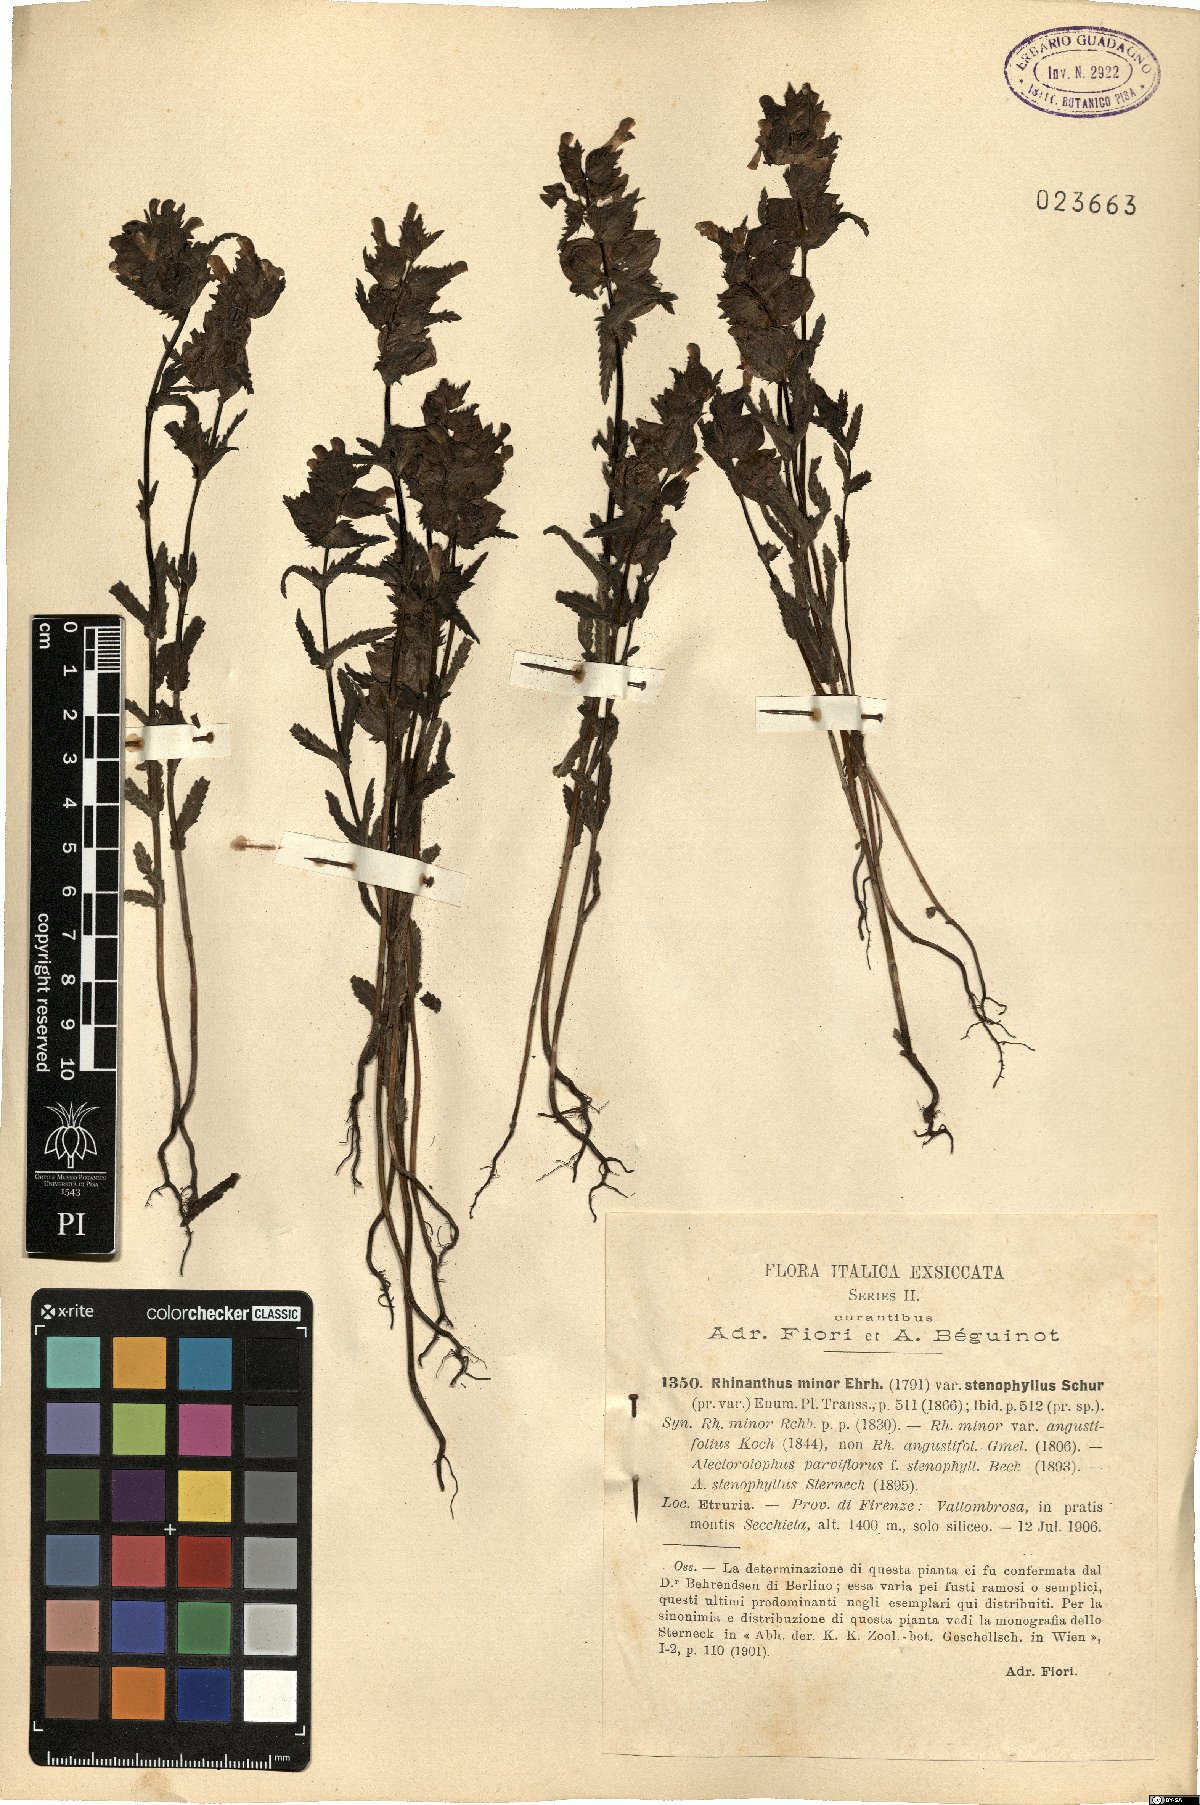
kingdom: Plantae
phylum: Tracheophyta
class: Magnoliopsida
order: Lamiales
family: Orobanchaceae
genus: Rhinanthus
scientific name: Rhinanthus minor
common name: Yellow-rattle
